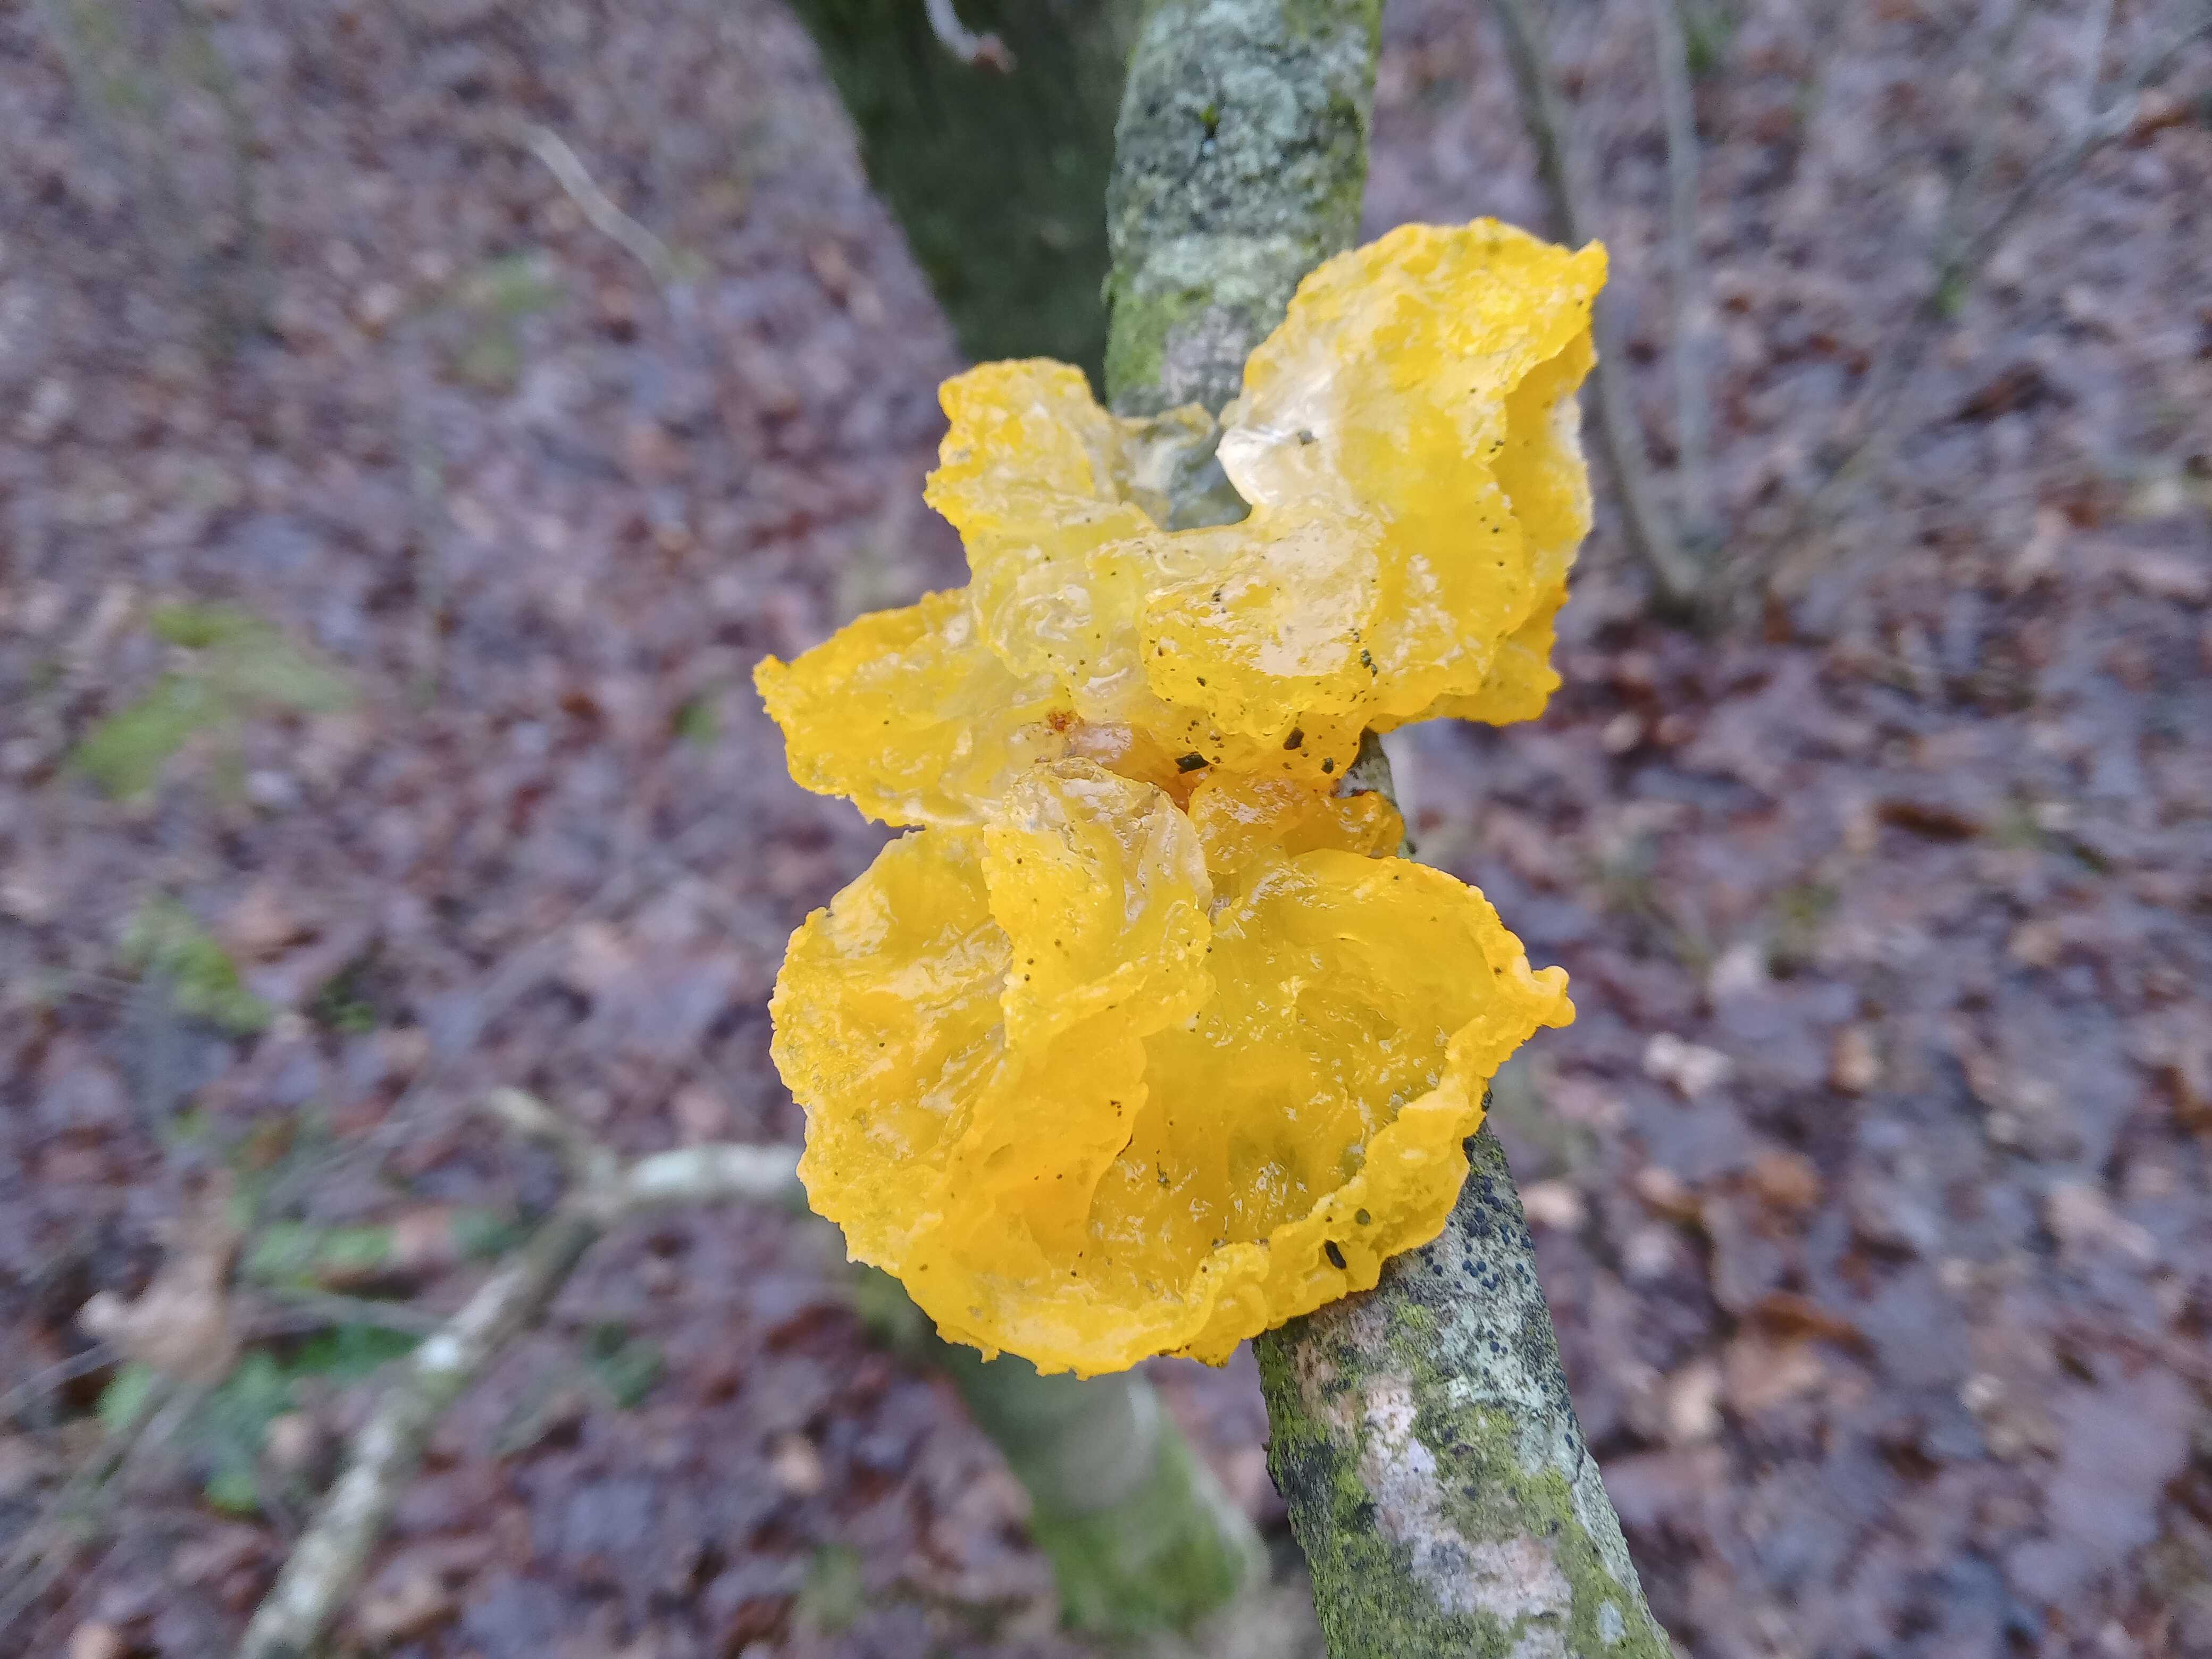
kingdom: Fungi
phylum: Basidiomycota
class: Tremellomycetes
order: Tremellales
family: Tremellaceae
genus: Tremella
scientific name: Tremella mesenterica
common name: gul bævresvamp
